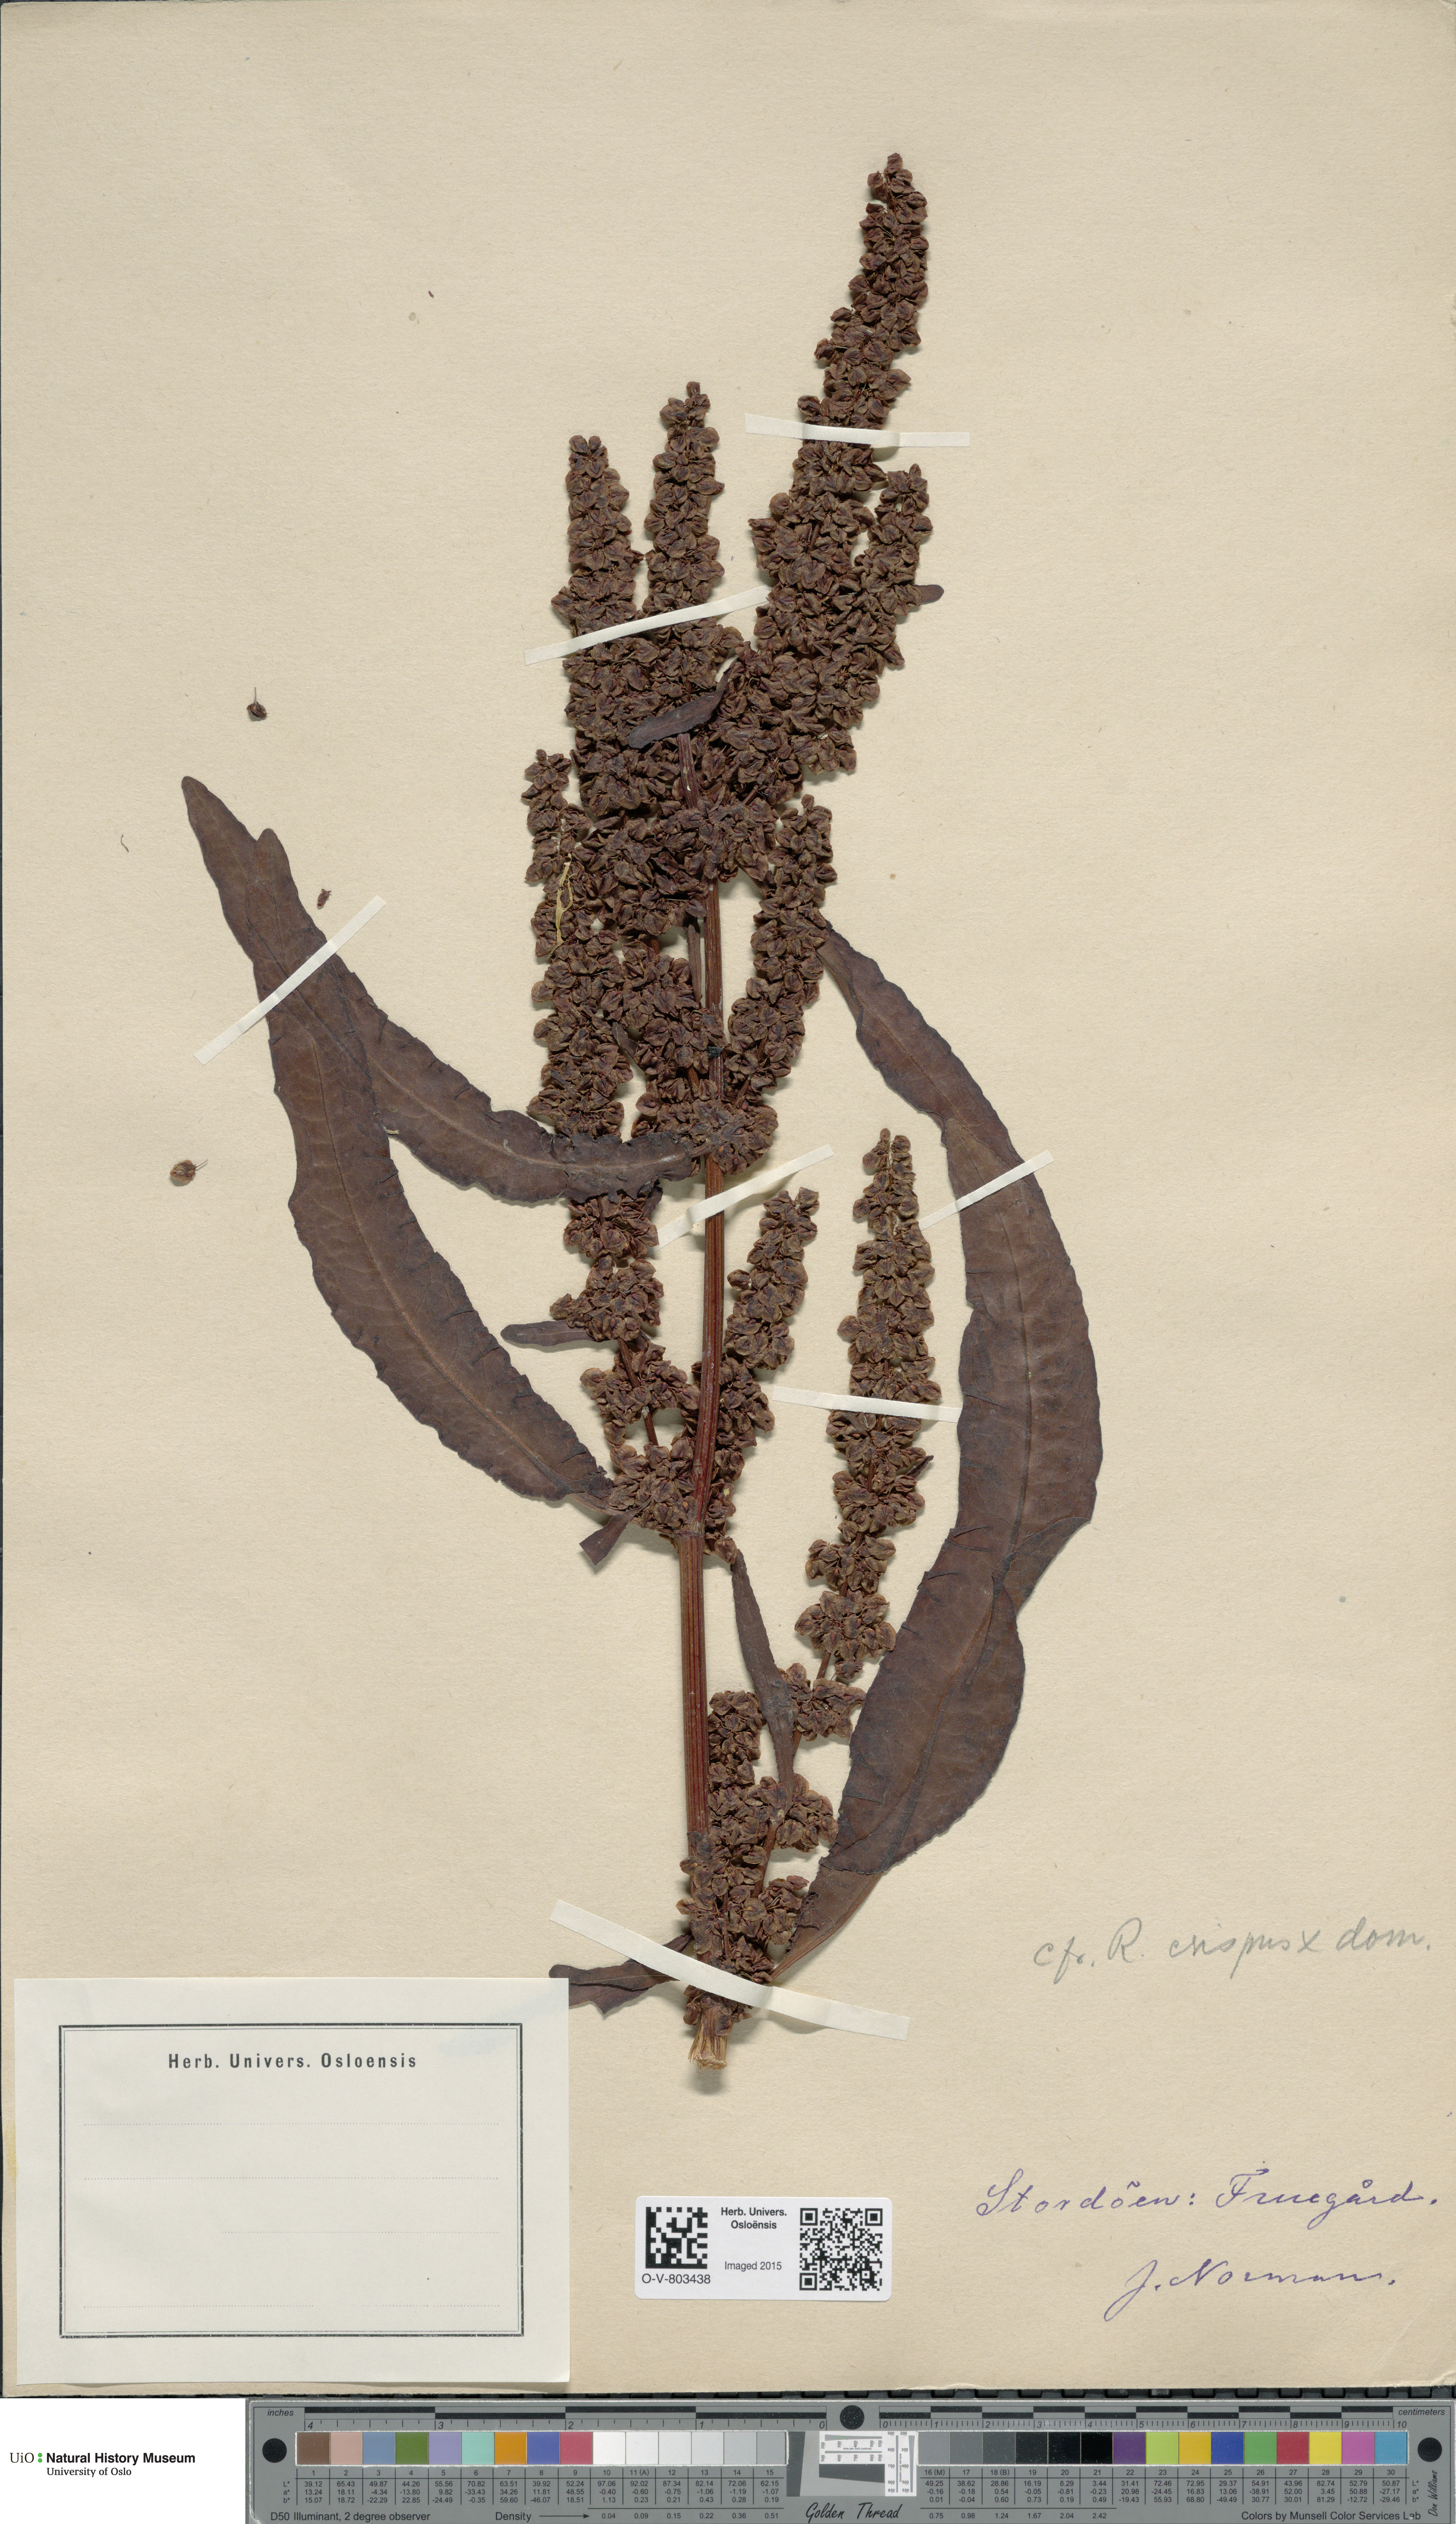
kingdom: Plantae
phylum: Tracheophyta
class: Magnoliopsida
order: Caryophyllales
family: Polygonaceae
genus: Rumex
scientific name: Rumex
